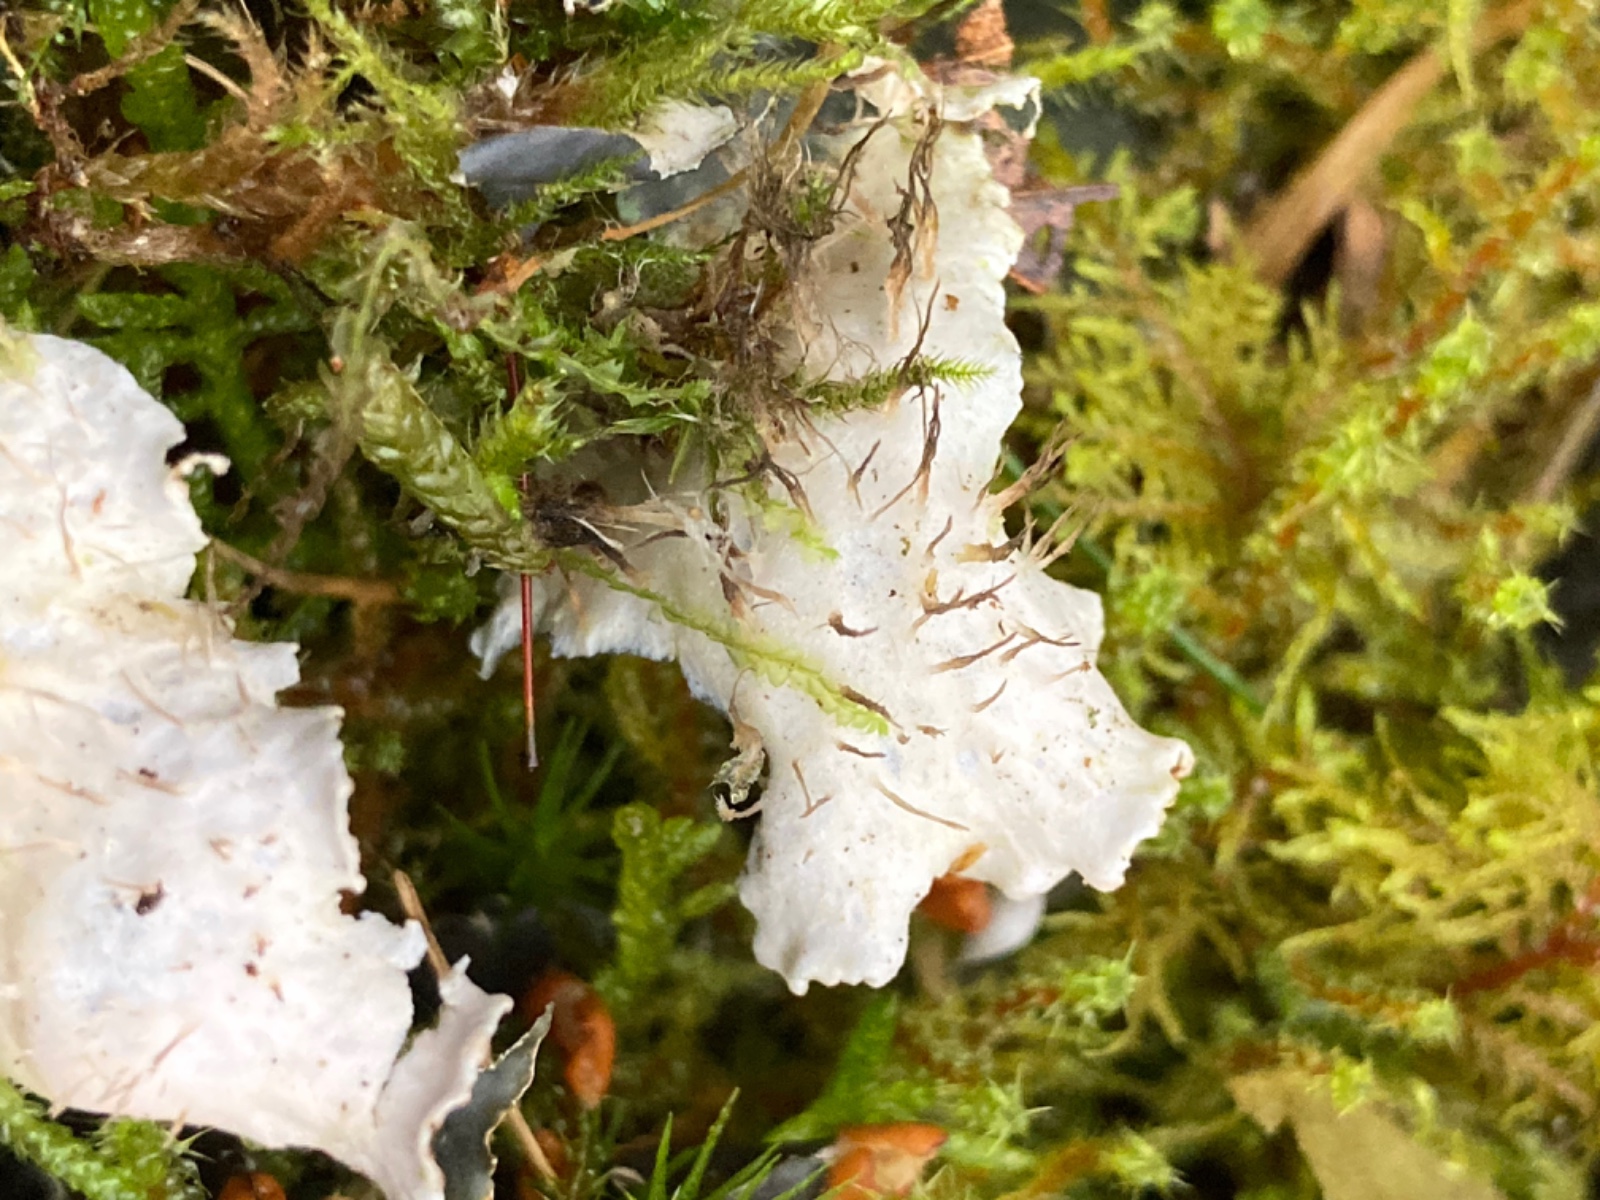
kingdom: Fungi
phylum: Ascomycota
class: Lecanoromycetes
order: Peltigerales
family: Peltigeraceae
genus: Peltigera
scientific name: Peltigera hymenina
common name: hinde-skjoldlav
